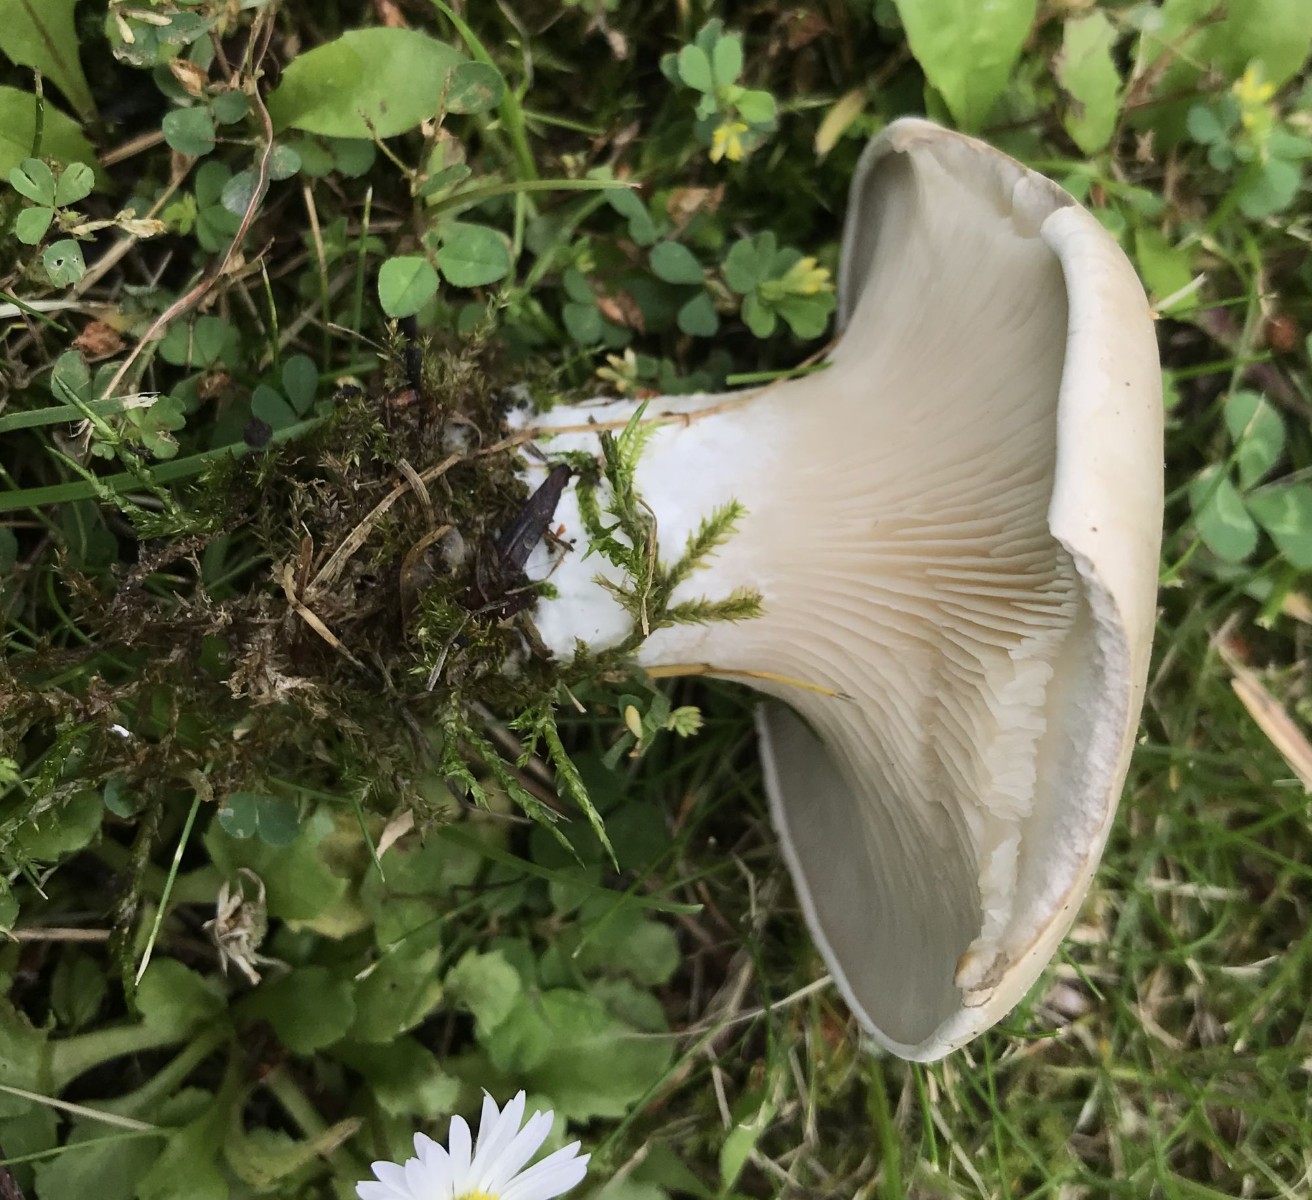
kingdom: Fungi
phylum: Basidiomycota
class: Agaricomycetes
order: Agaricales
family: Entolomataceae
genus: Clitopilus
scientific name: Clitopilus prunulus
